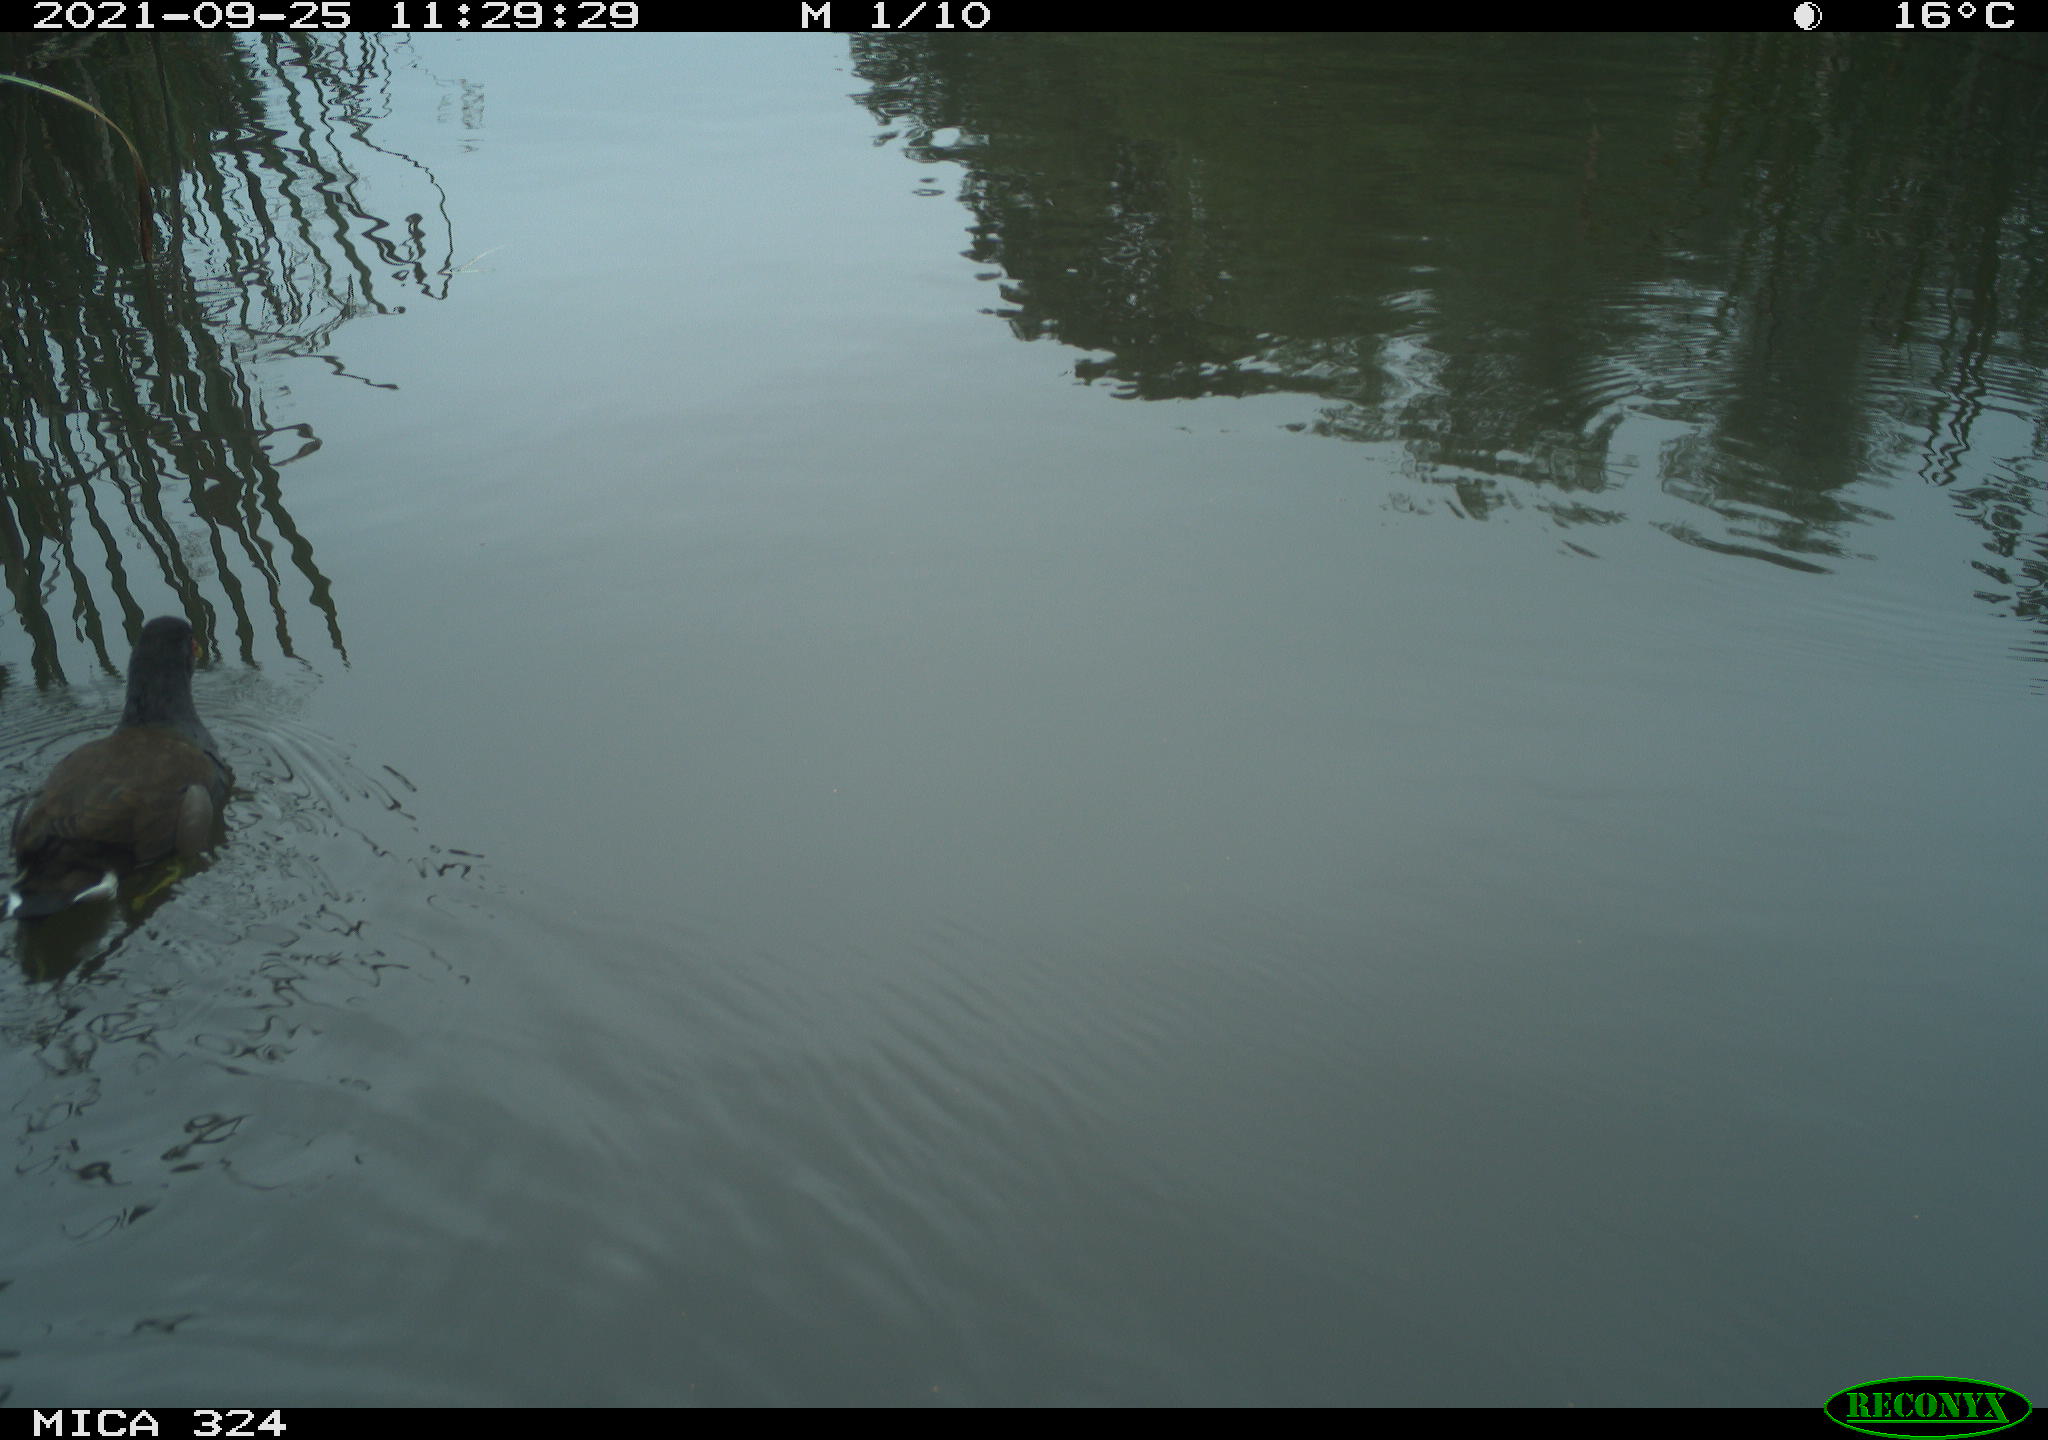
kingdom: Animalia
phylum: Chordata
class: Aves
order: Gruiformes
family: Rallidae
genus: Gallinula
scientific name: Gallinula chloropus
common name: Common moorhen
